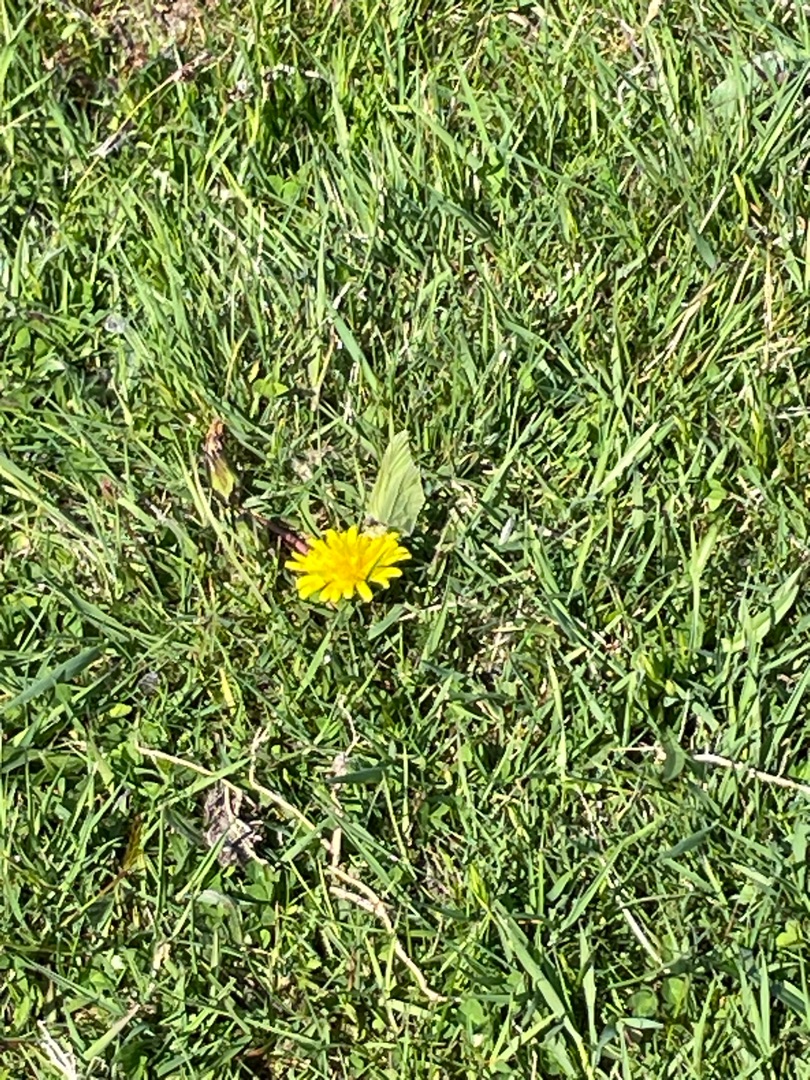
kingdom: Animalia
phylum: Arthropoda
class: Insecta
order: Lepidoptera
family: Pieridae
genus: Gonepteryx
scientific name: Gonepteryx rhamni
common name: Citronsommerfugl
